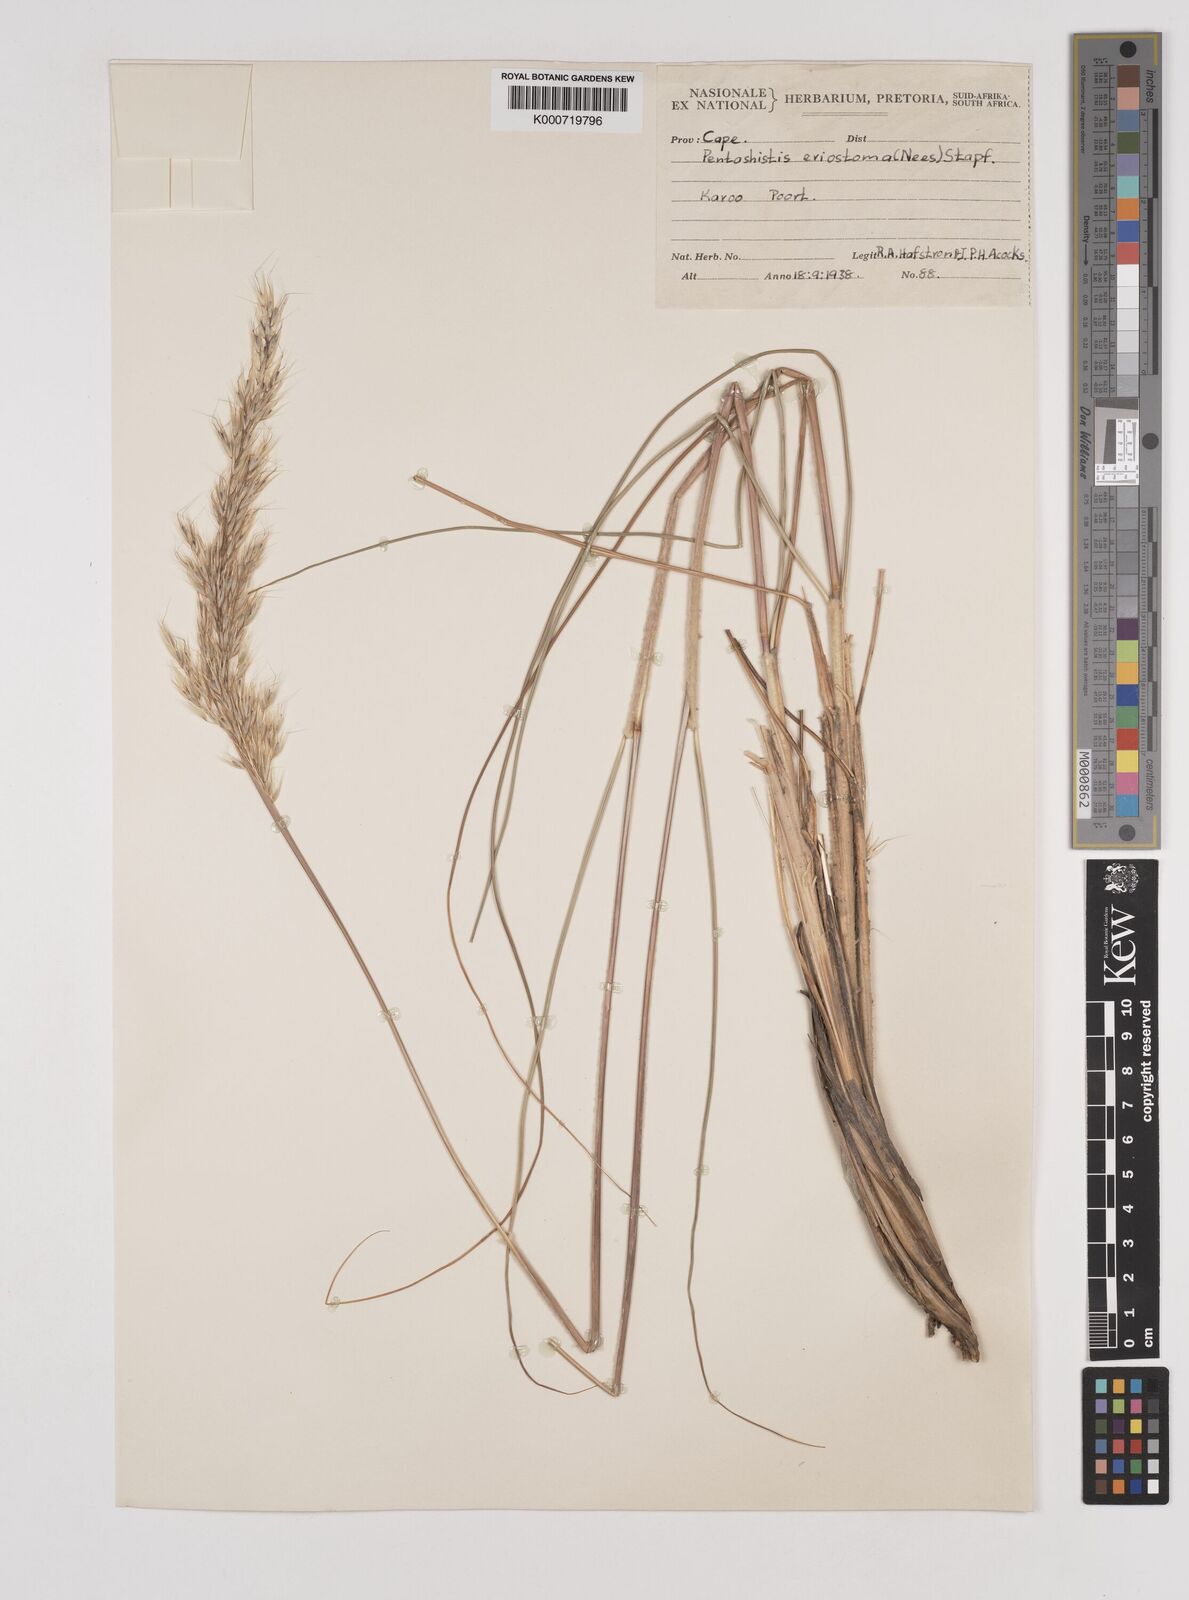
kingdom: Plantae
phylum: Tracheophyta
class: Liliopsida
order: Poales
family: Poaceae
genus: Pentameris
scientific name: Pentameris eriostoma
